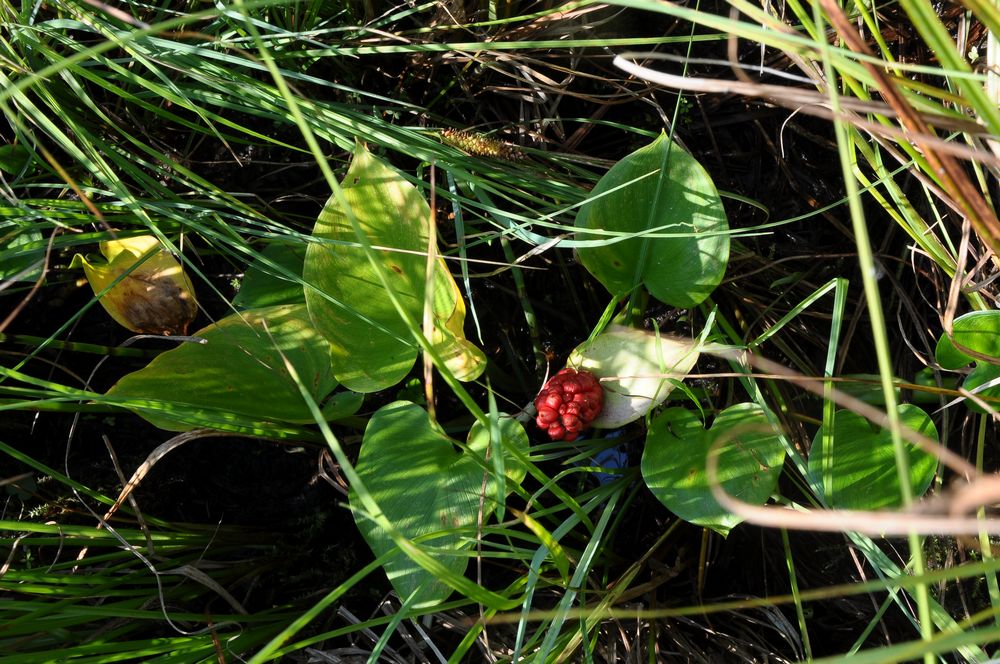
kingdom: Plantae
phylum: Tracheophyta
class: Liliopsida
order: Alismatales
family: Araceae
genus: Calla
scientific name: Calla palustris
